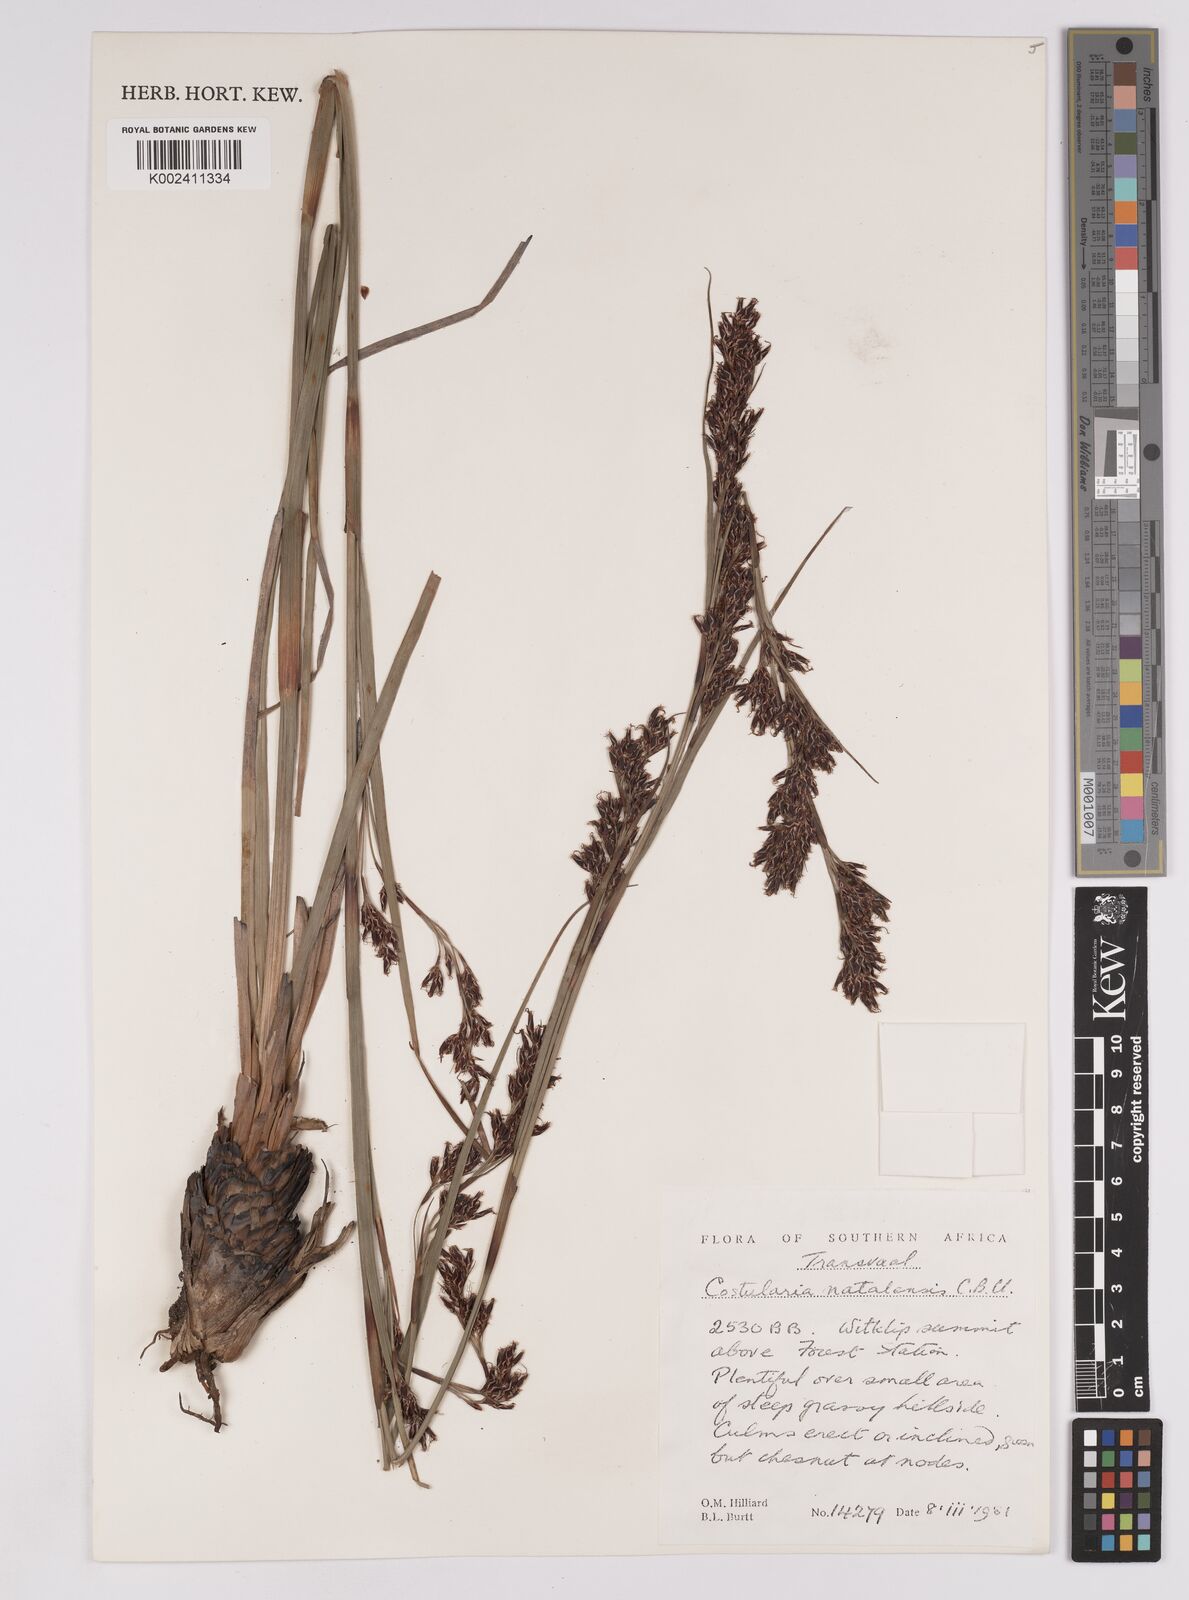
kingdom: Plantae
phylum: Tracheophyta
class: Liliopsida
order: Poales
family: Cyperaceae
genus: Costularia
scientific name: Costularia natalensis
